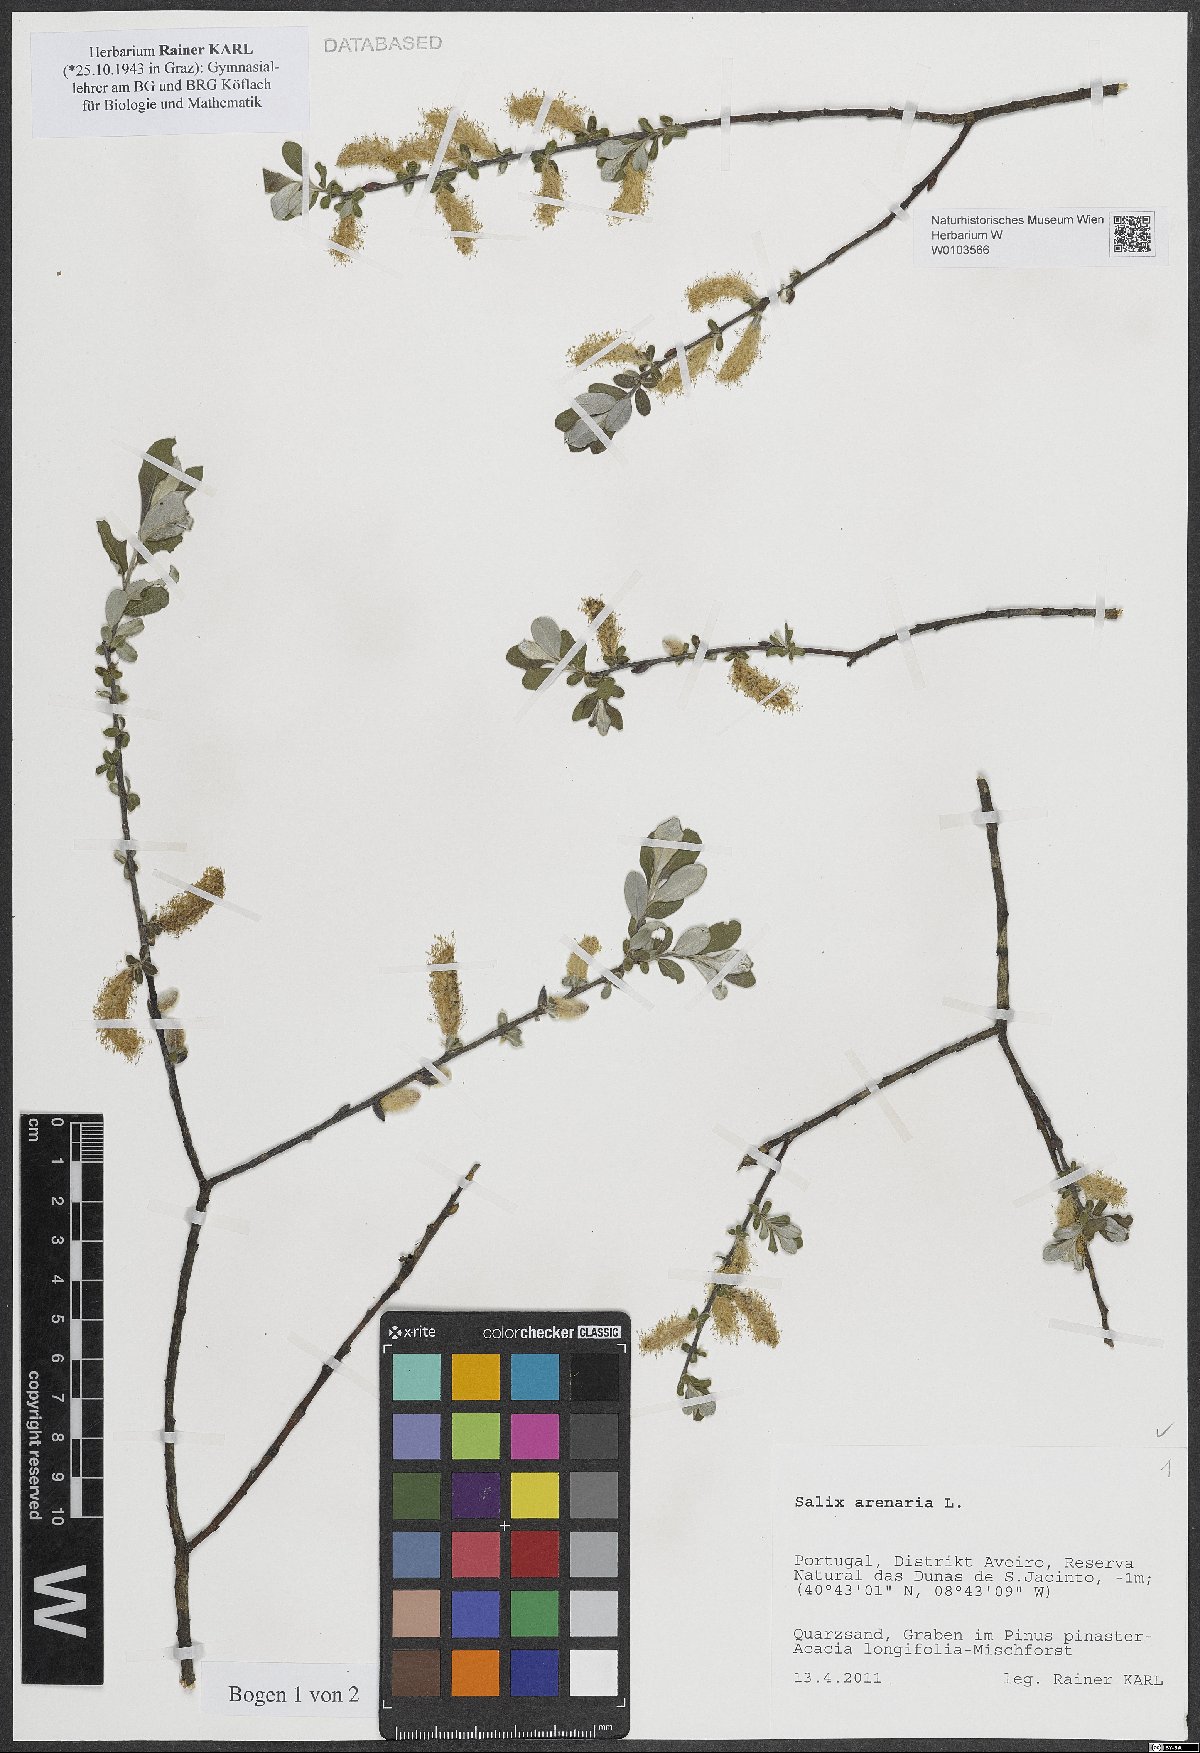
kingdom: Plantae
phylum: Tracheophyta
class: Magnoliopsida
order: Malpighiales
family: Salicaceae
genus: Salix
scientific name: Salix repens
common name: Creeping willow
